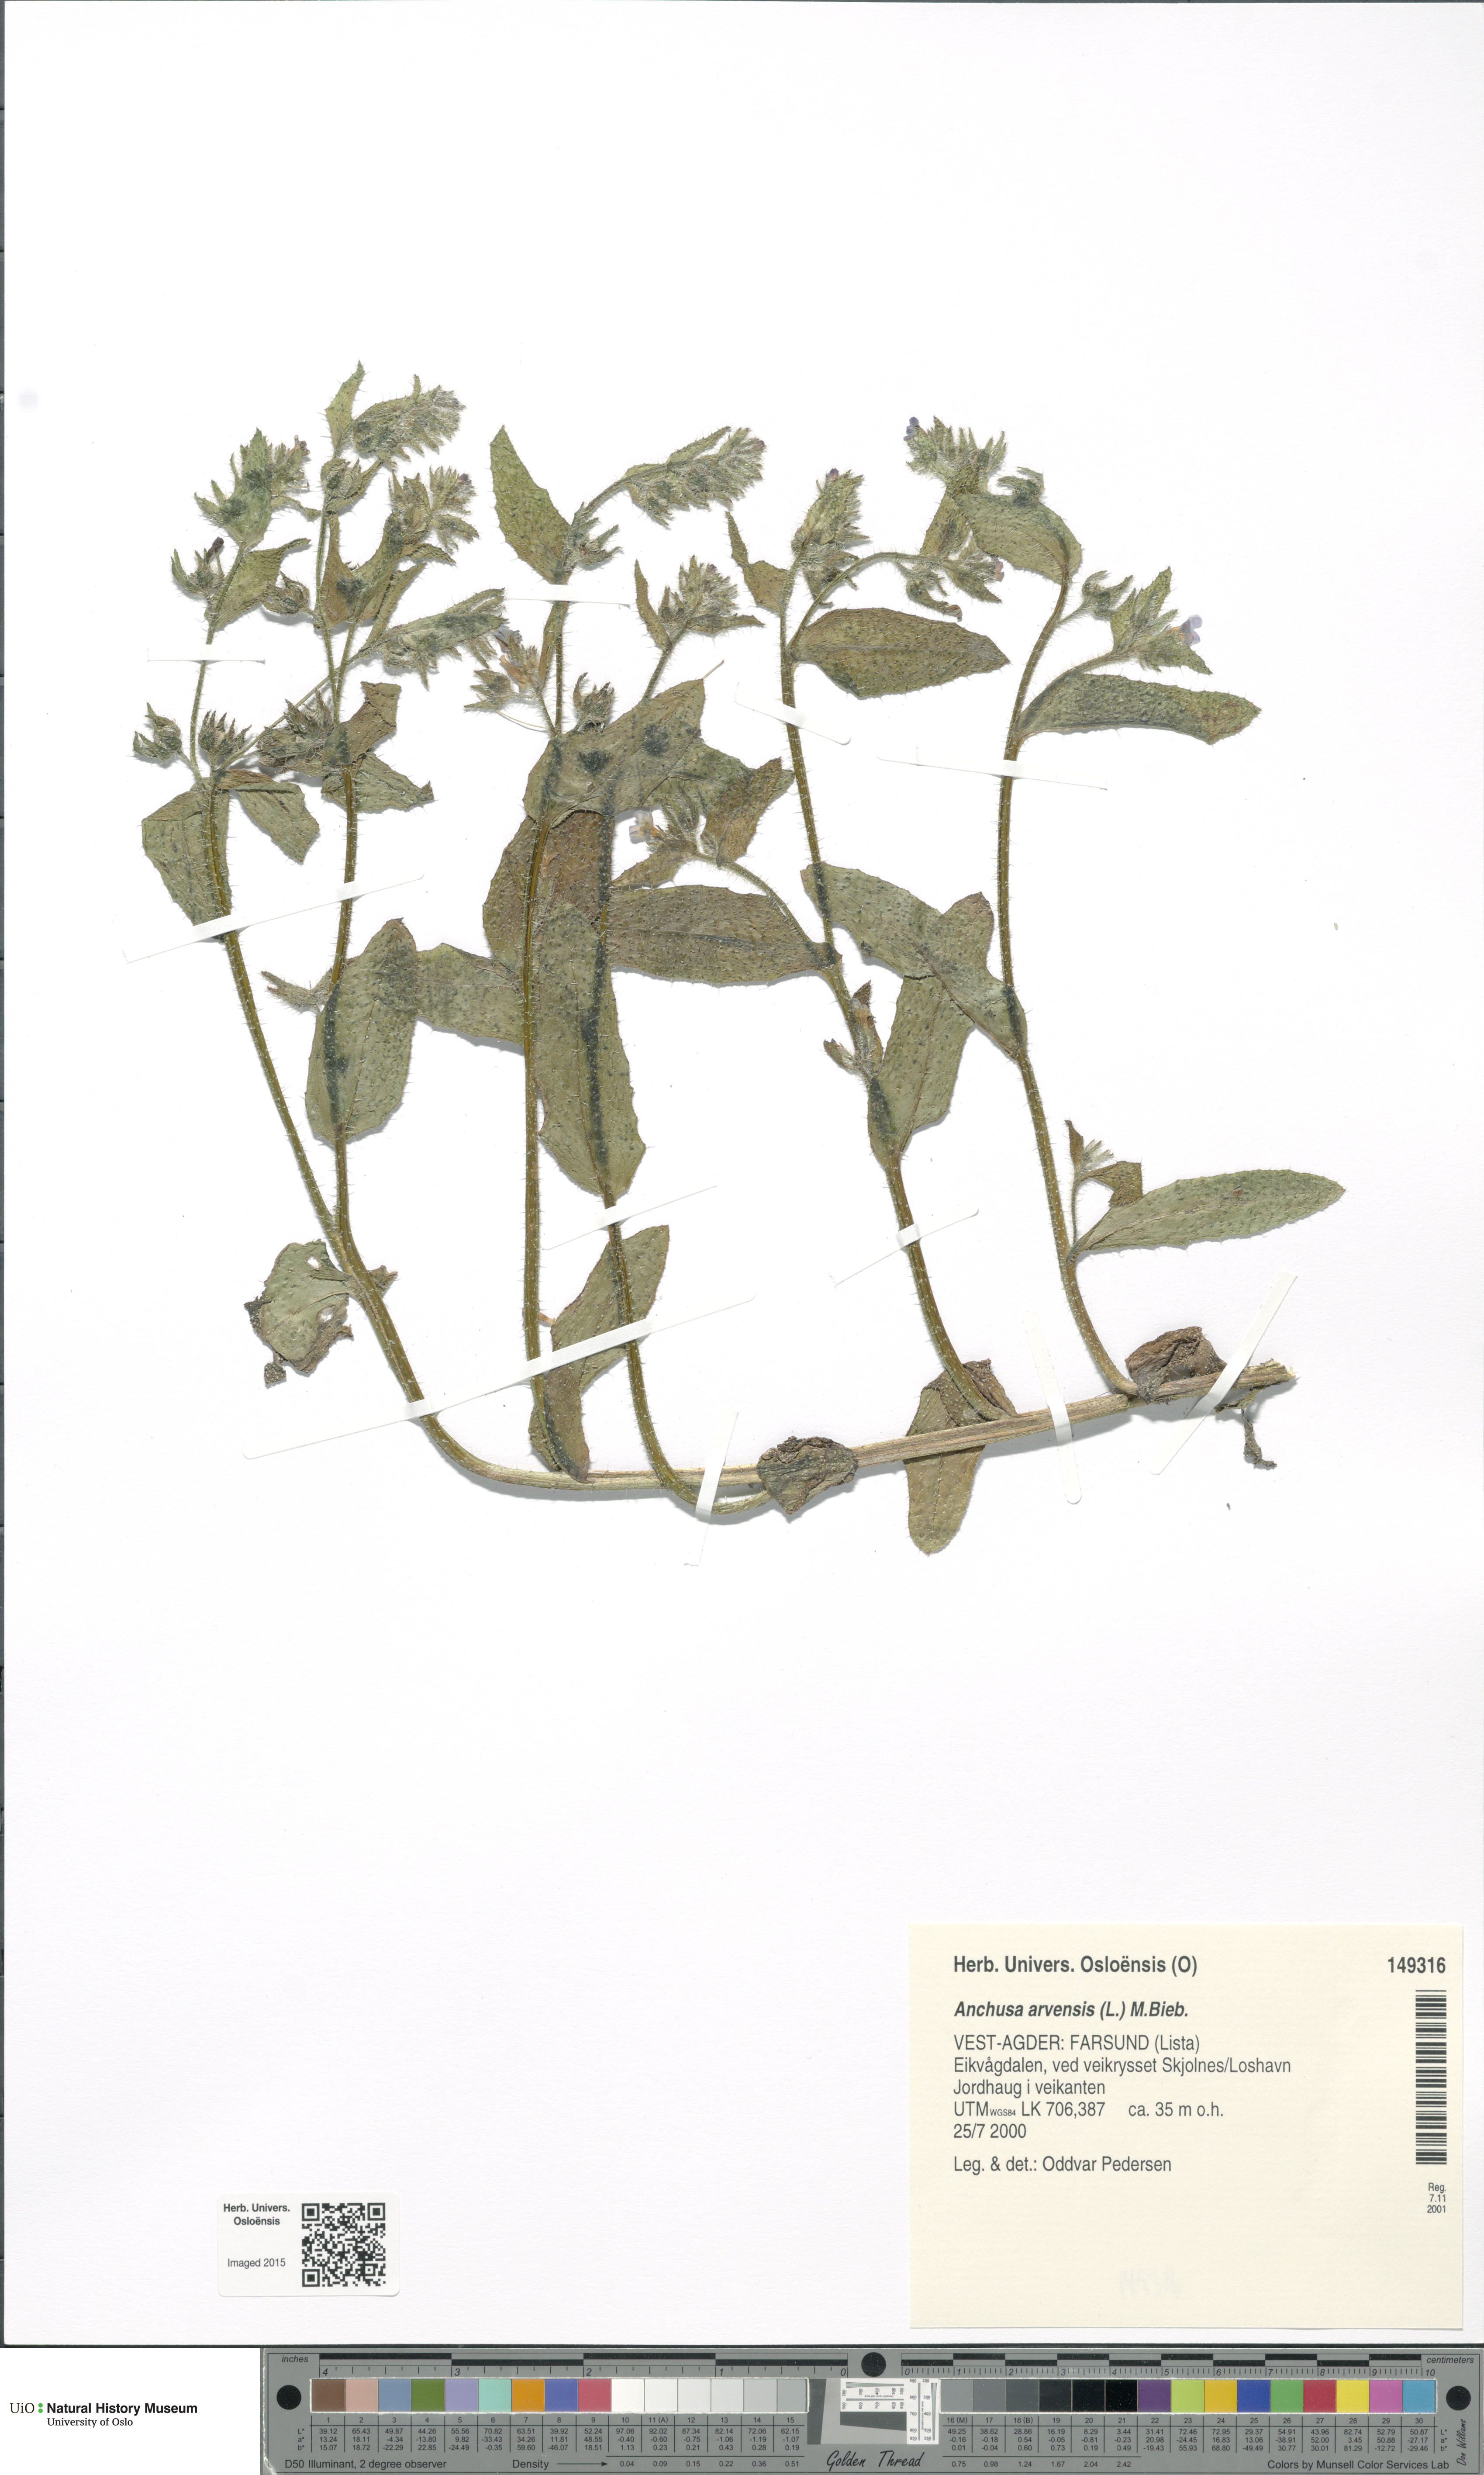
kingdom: Plantae
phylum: Tracheophyta
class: Magnoliopsida
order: Boraginales
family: Boraginaceae
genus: Lycopsis
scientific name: Lycopsis arvensis
